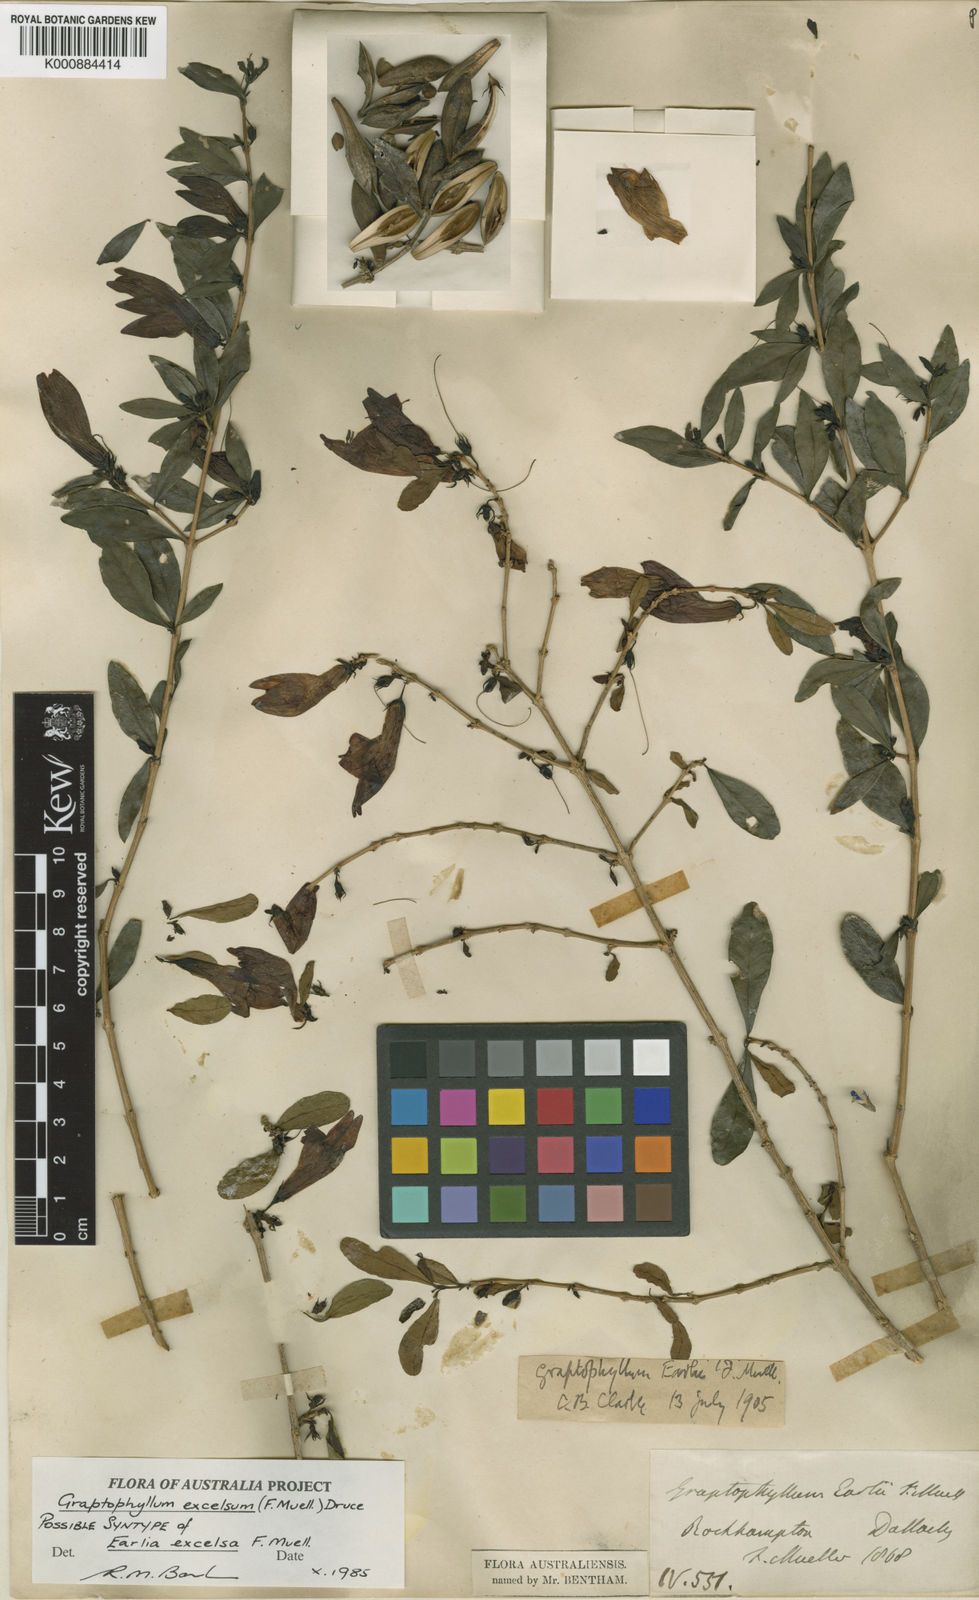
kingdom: Plantae
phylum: Tracheophyta
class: Magnoliopsida
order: Lamiales
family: Acanthaceae
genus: Graptophyllum
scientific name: Graptophyllum excelsum
